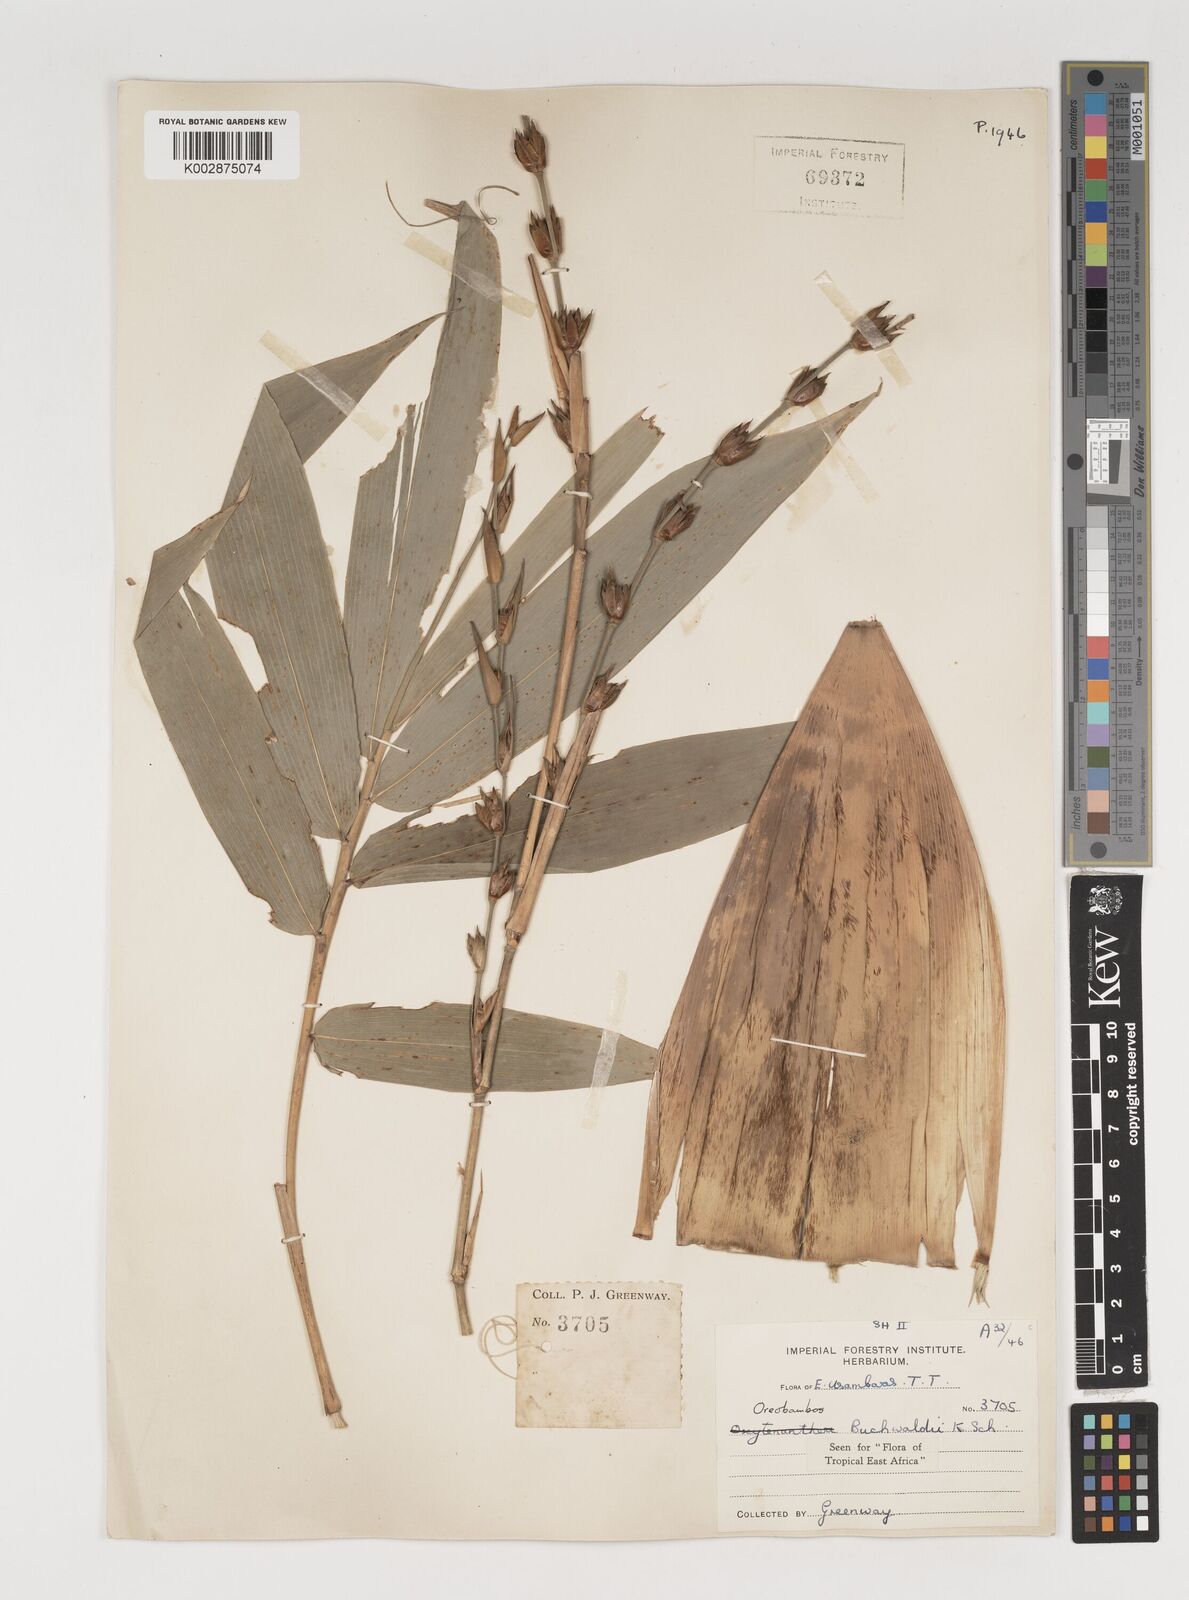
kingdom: Plantae
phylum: Tracheophyta
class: Liliopsida
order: Poales
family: Poaceae
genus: Oreobambos
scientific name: Oreobambos buchwaldii
